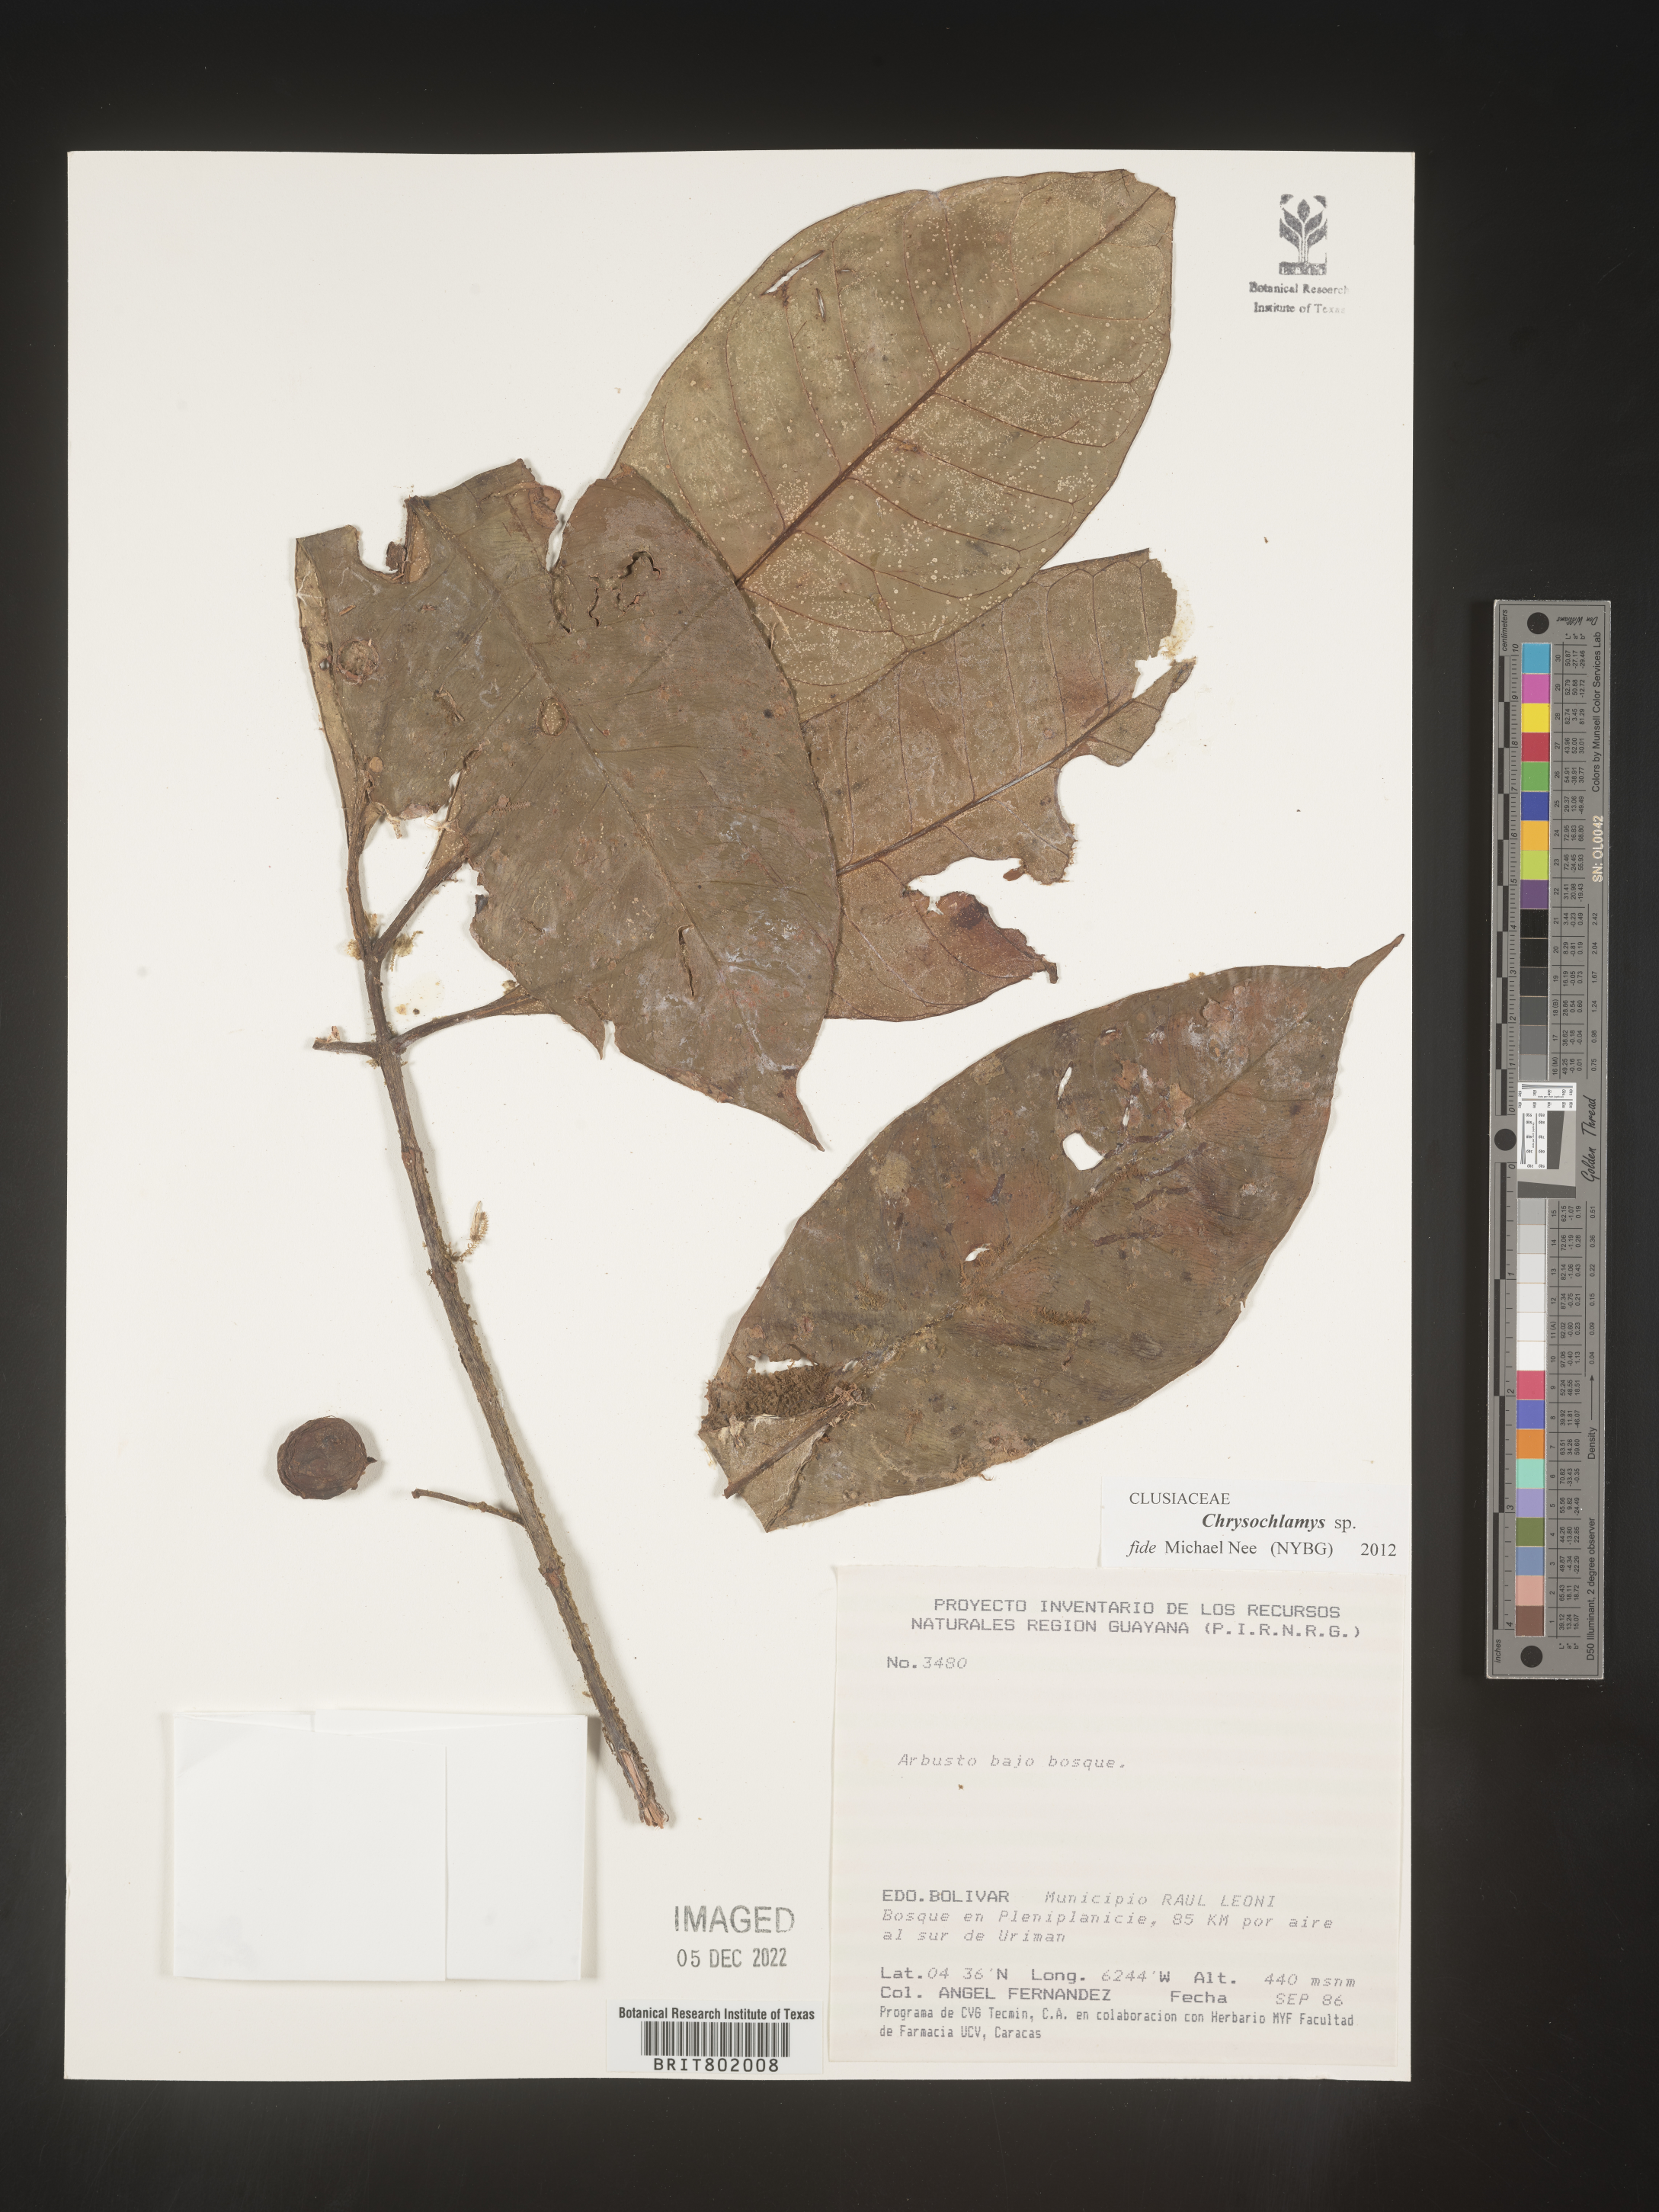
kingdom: Plantae
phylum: Tracheophyta
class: Magnoliopsida
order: Malpighiales
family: Clusiaceae
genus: Chrysochlamys
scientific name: Chrysochlamys
